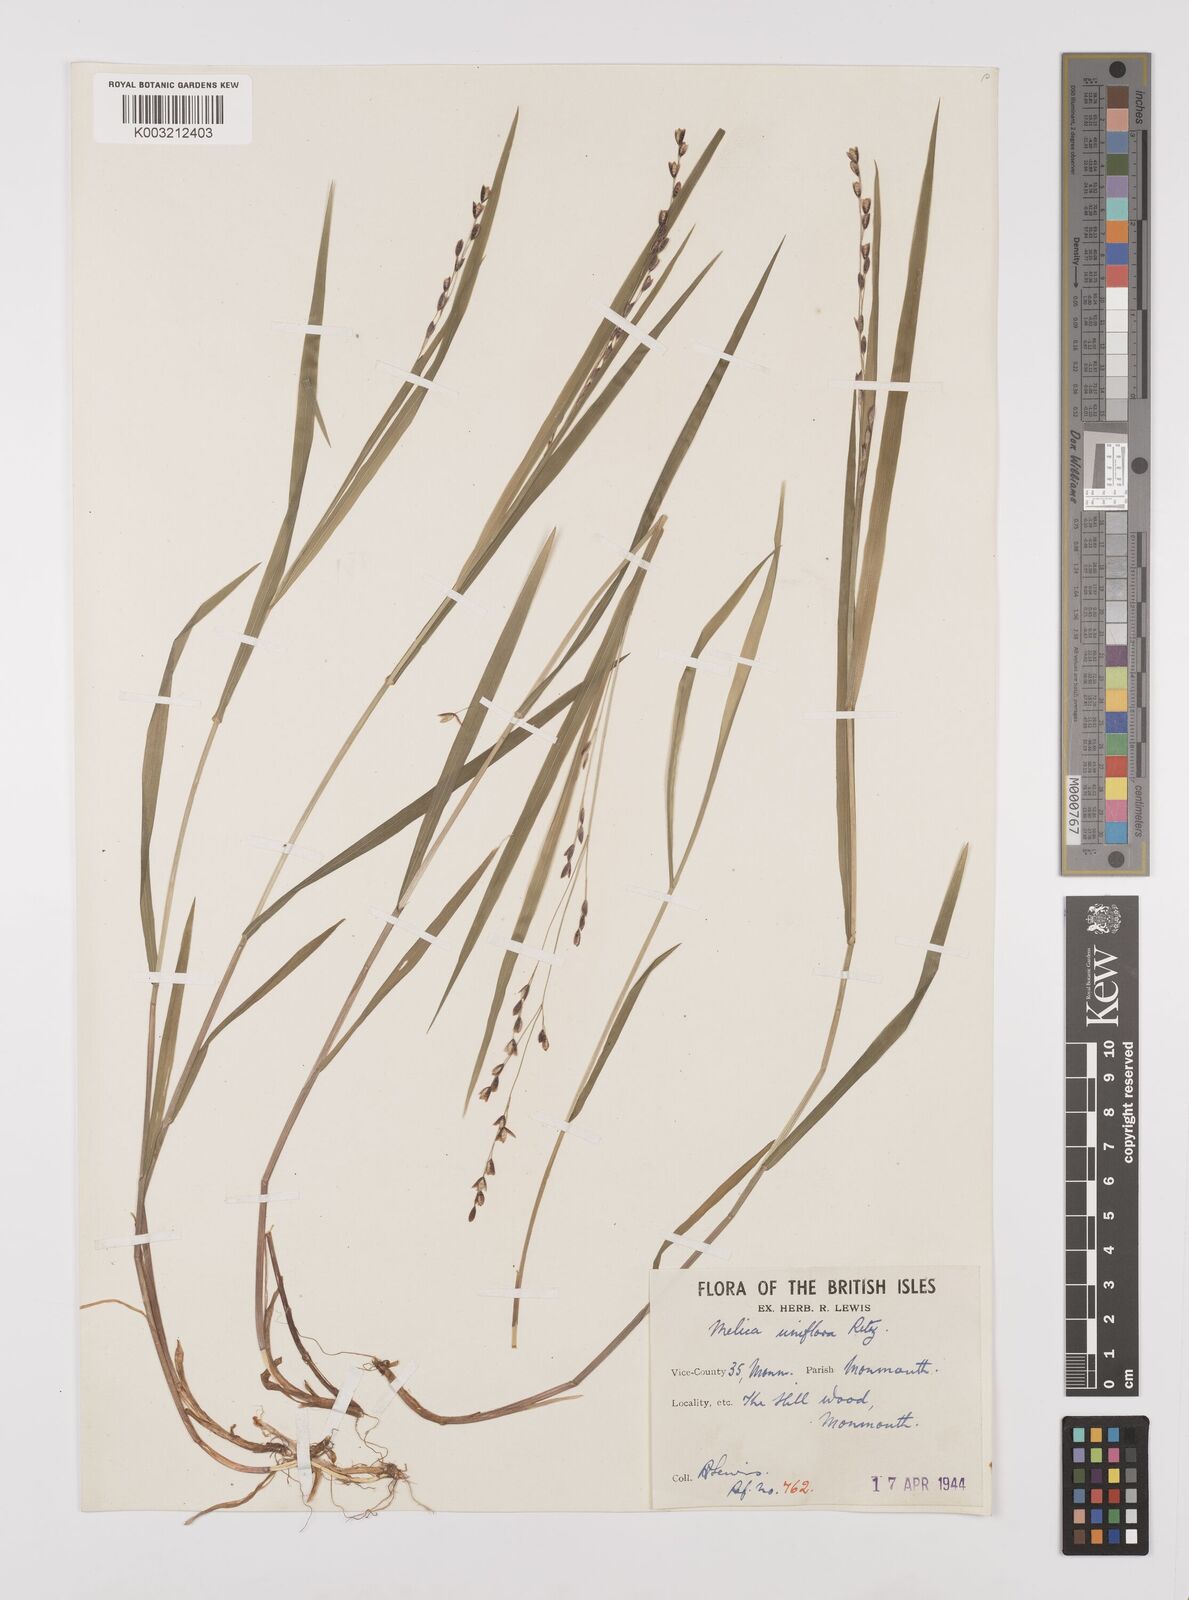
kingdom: Plantae
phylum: Tracheophyta
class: Liliopsida
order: Poales
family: Poaceae
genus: Melica
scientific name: Melica uniflora
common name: Wood melick
